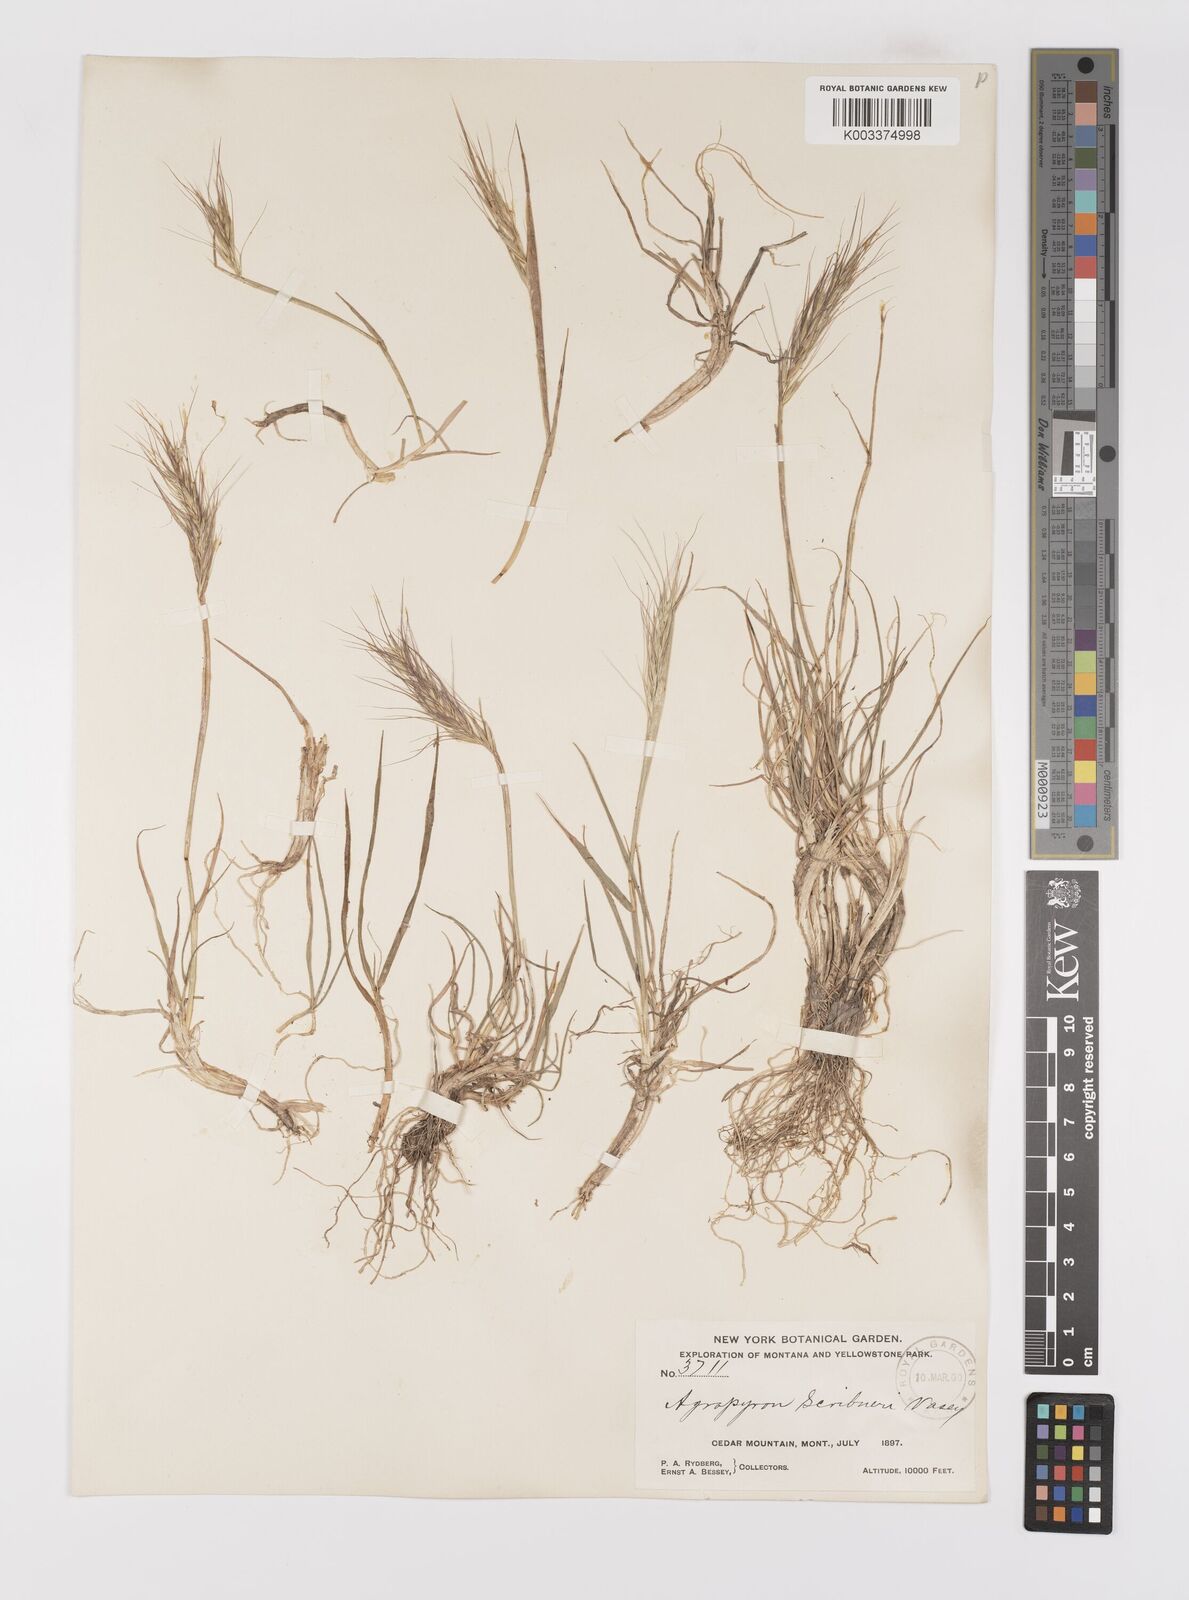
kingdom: Plantae
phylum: Tracheophyta
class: Liliopsida
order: Poales
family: Poaceae
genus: Elymus
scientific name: Elymus scribneri
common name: Scribner's wheatgrass
